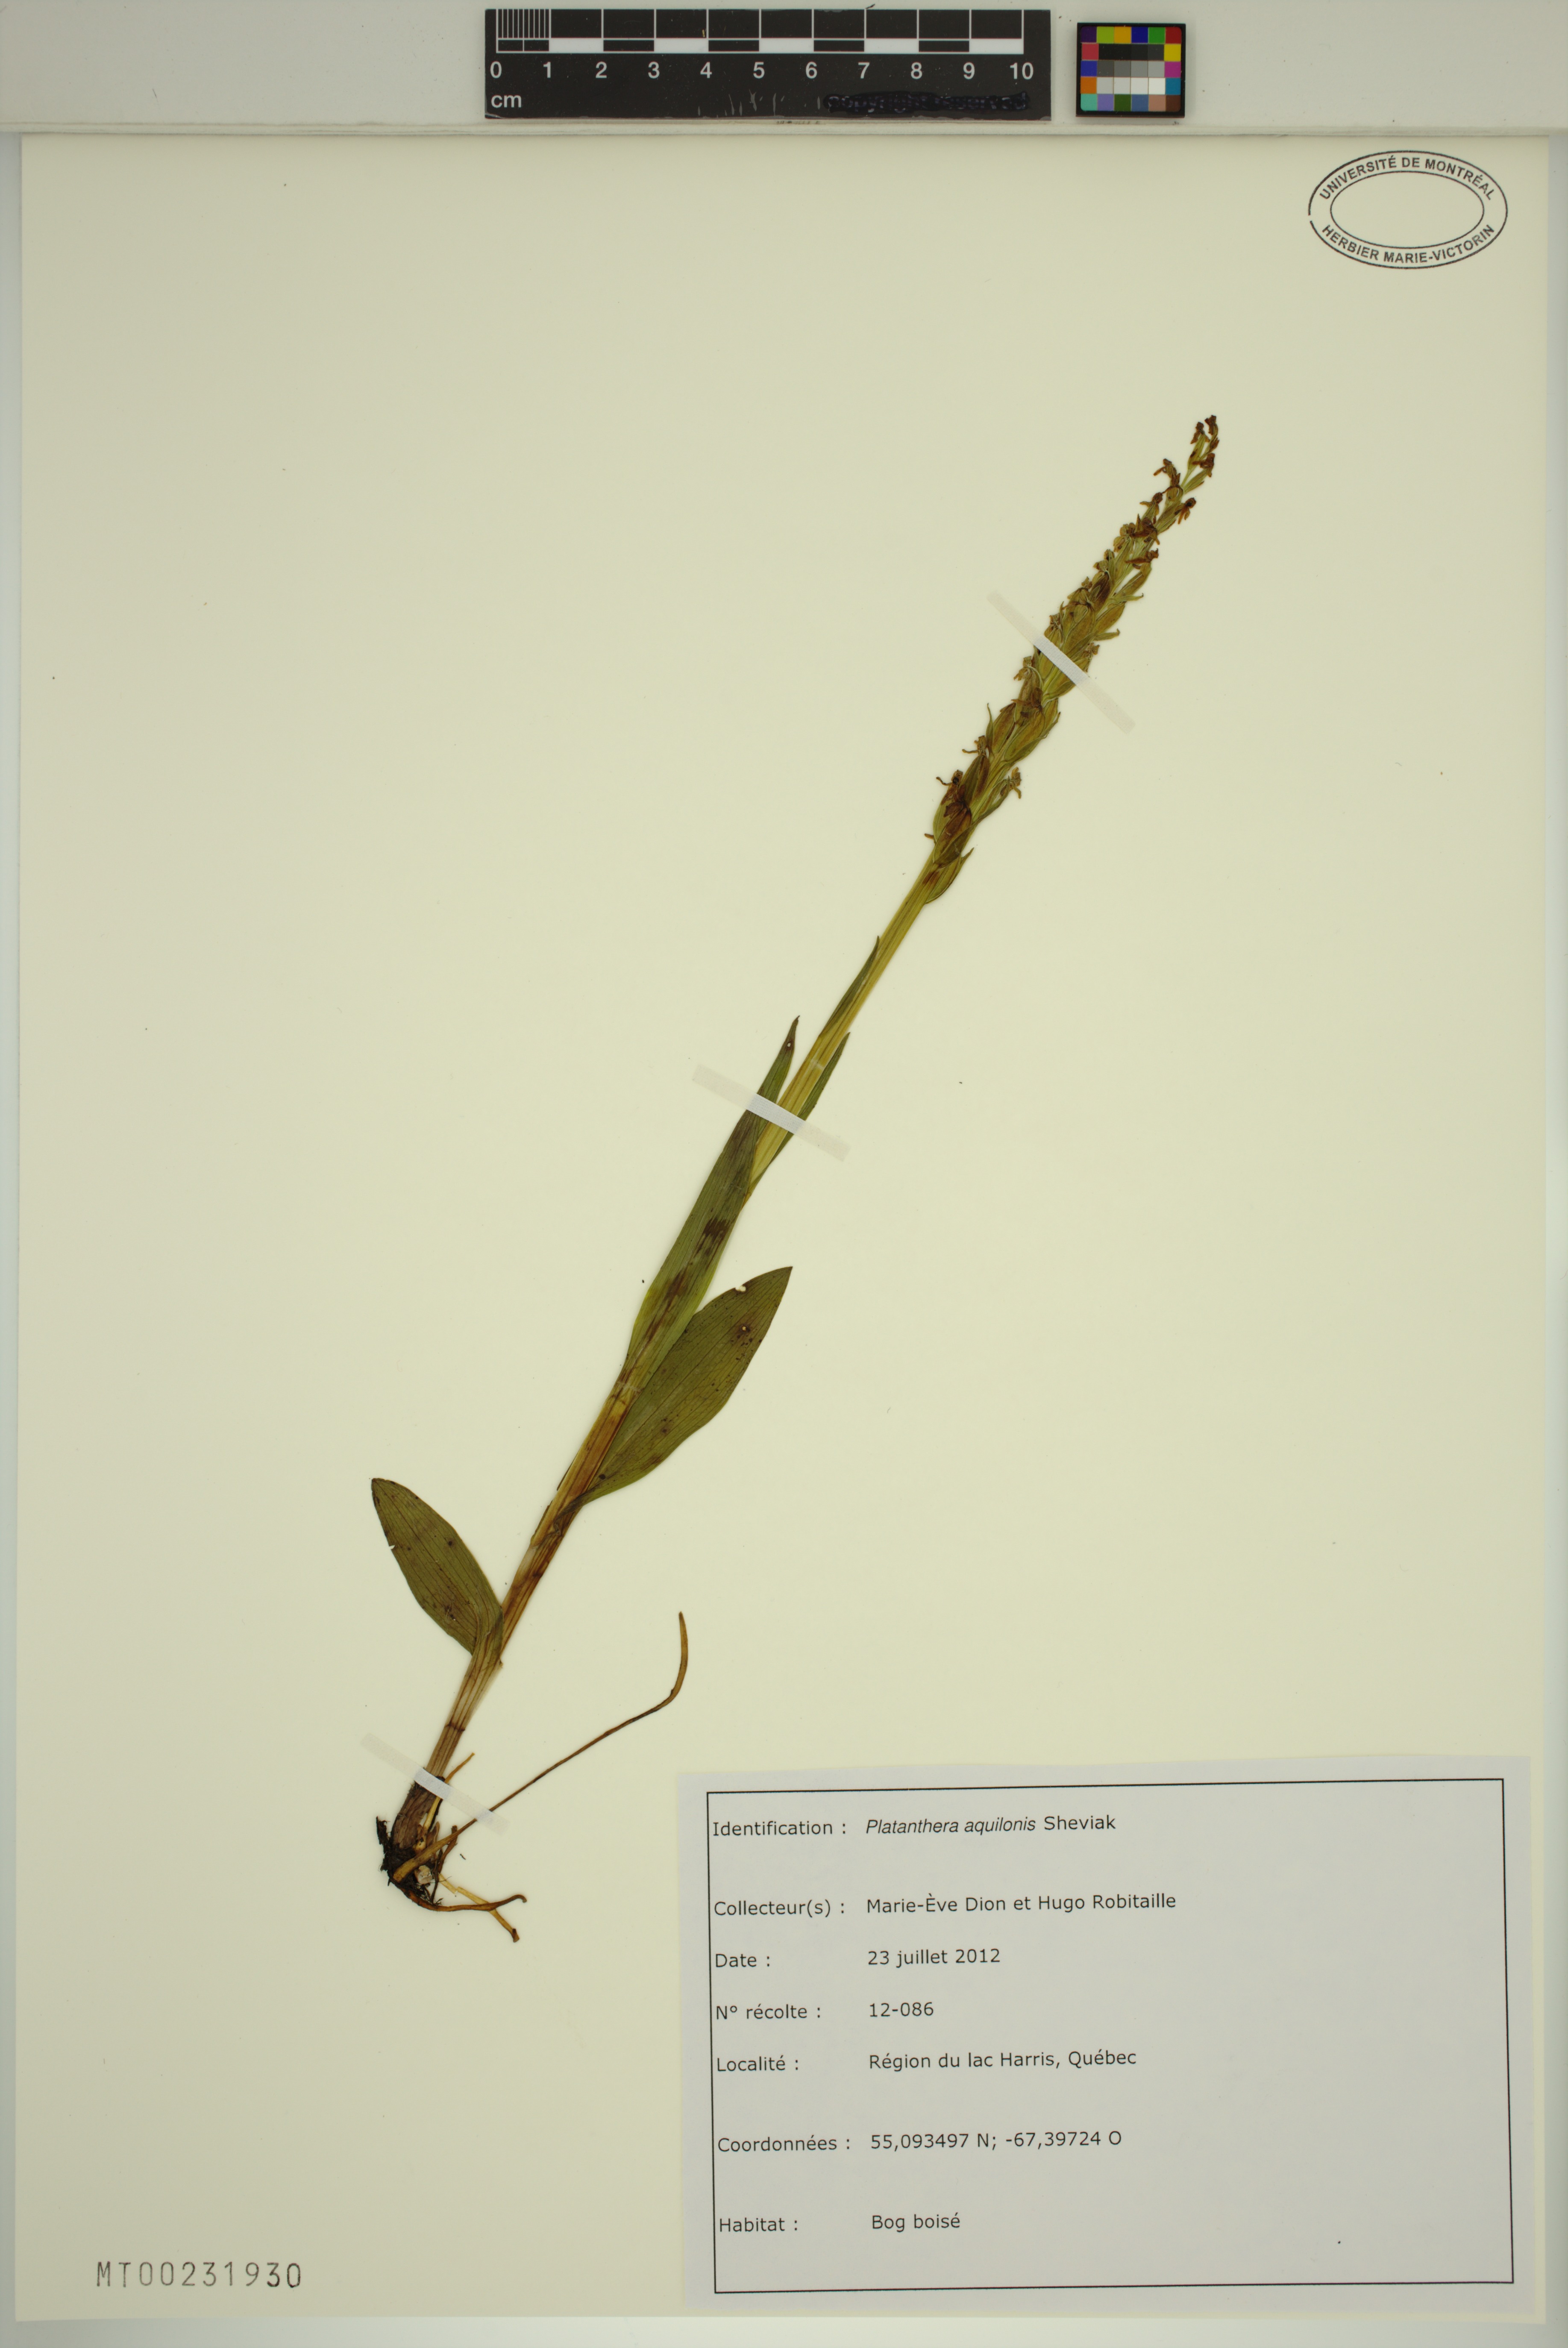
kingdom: Plantae
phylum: Tracheophyta
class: Liliopsida
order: Asparagales
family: Orchidaceae
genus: Platanthera
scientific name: Platanthera aquilonis
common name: Northern green orchid
